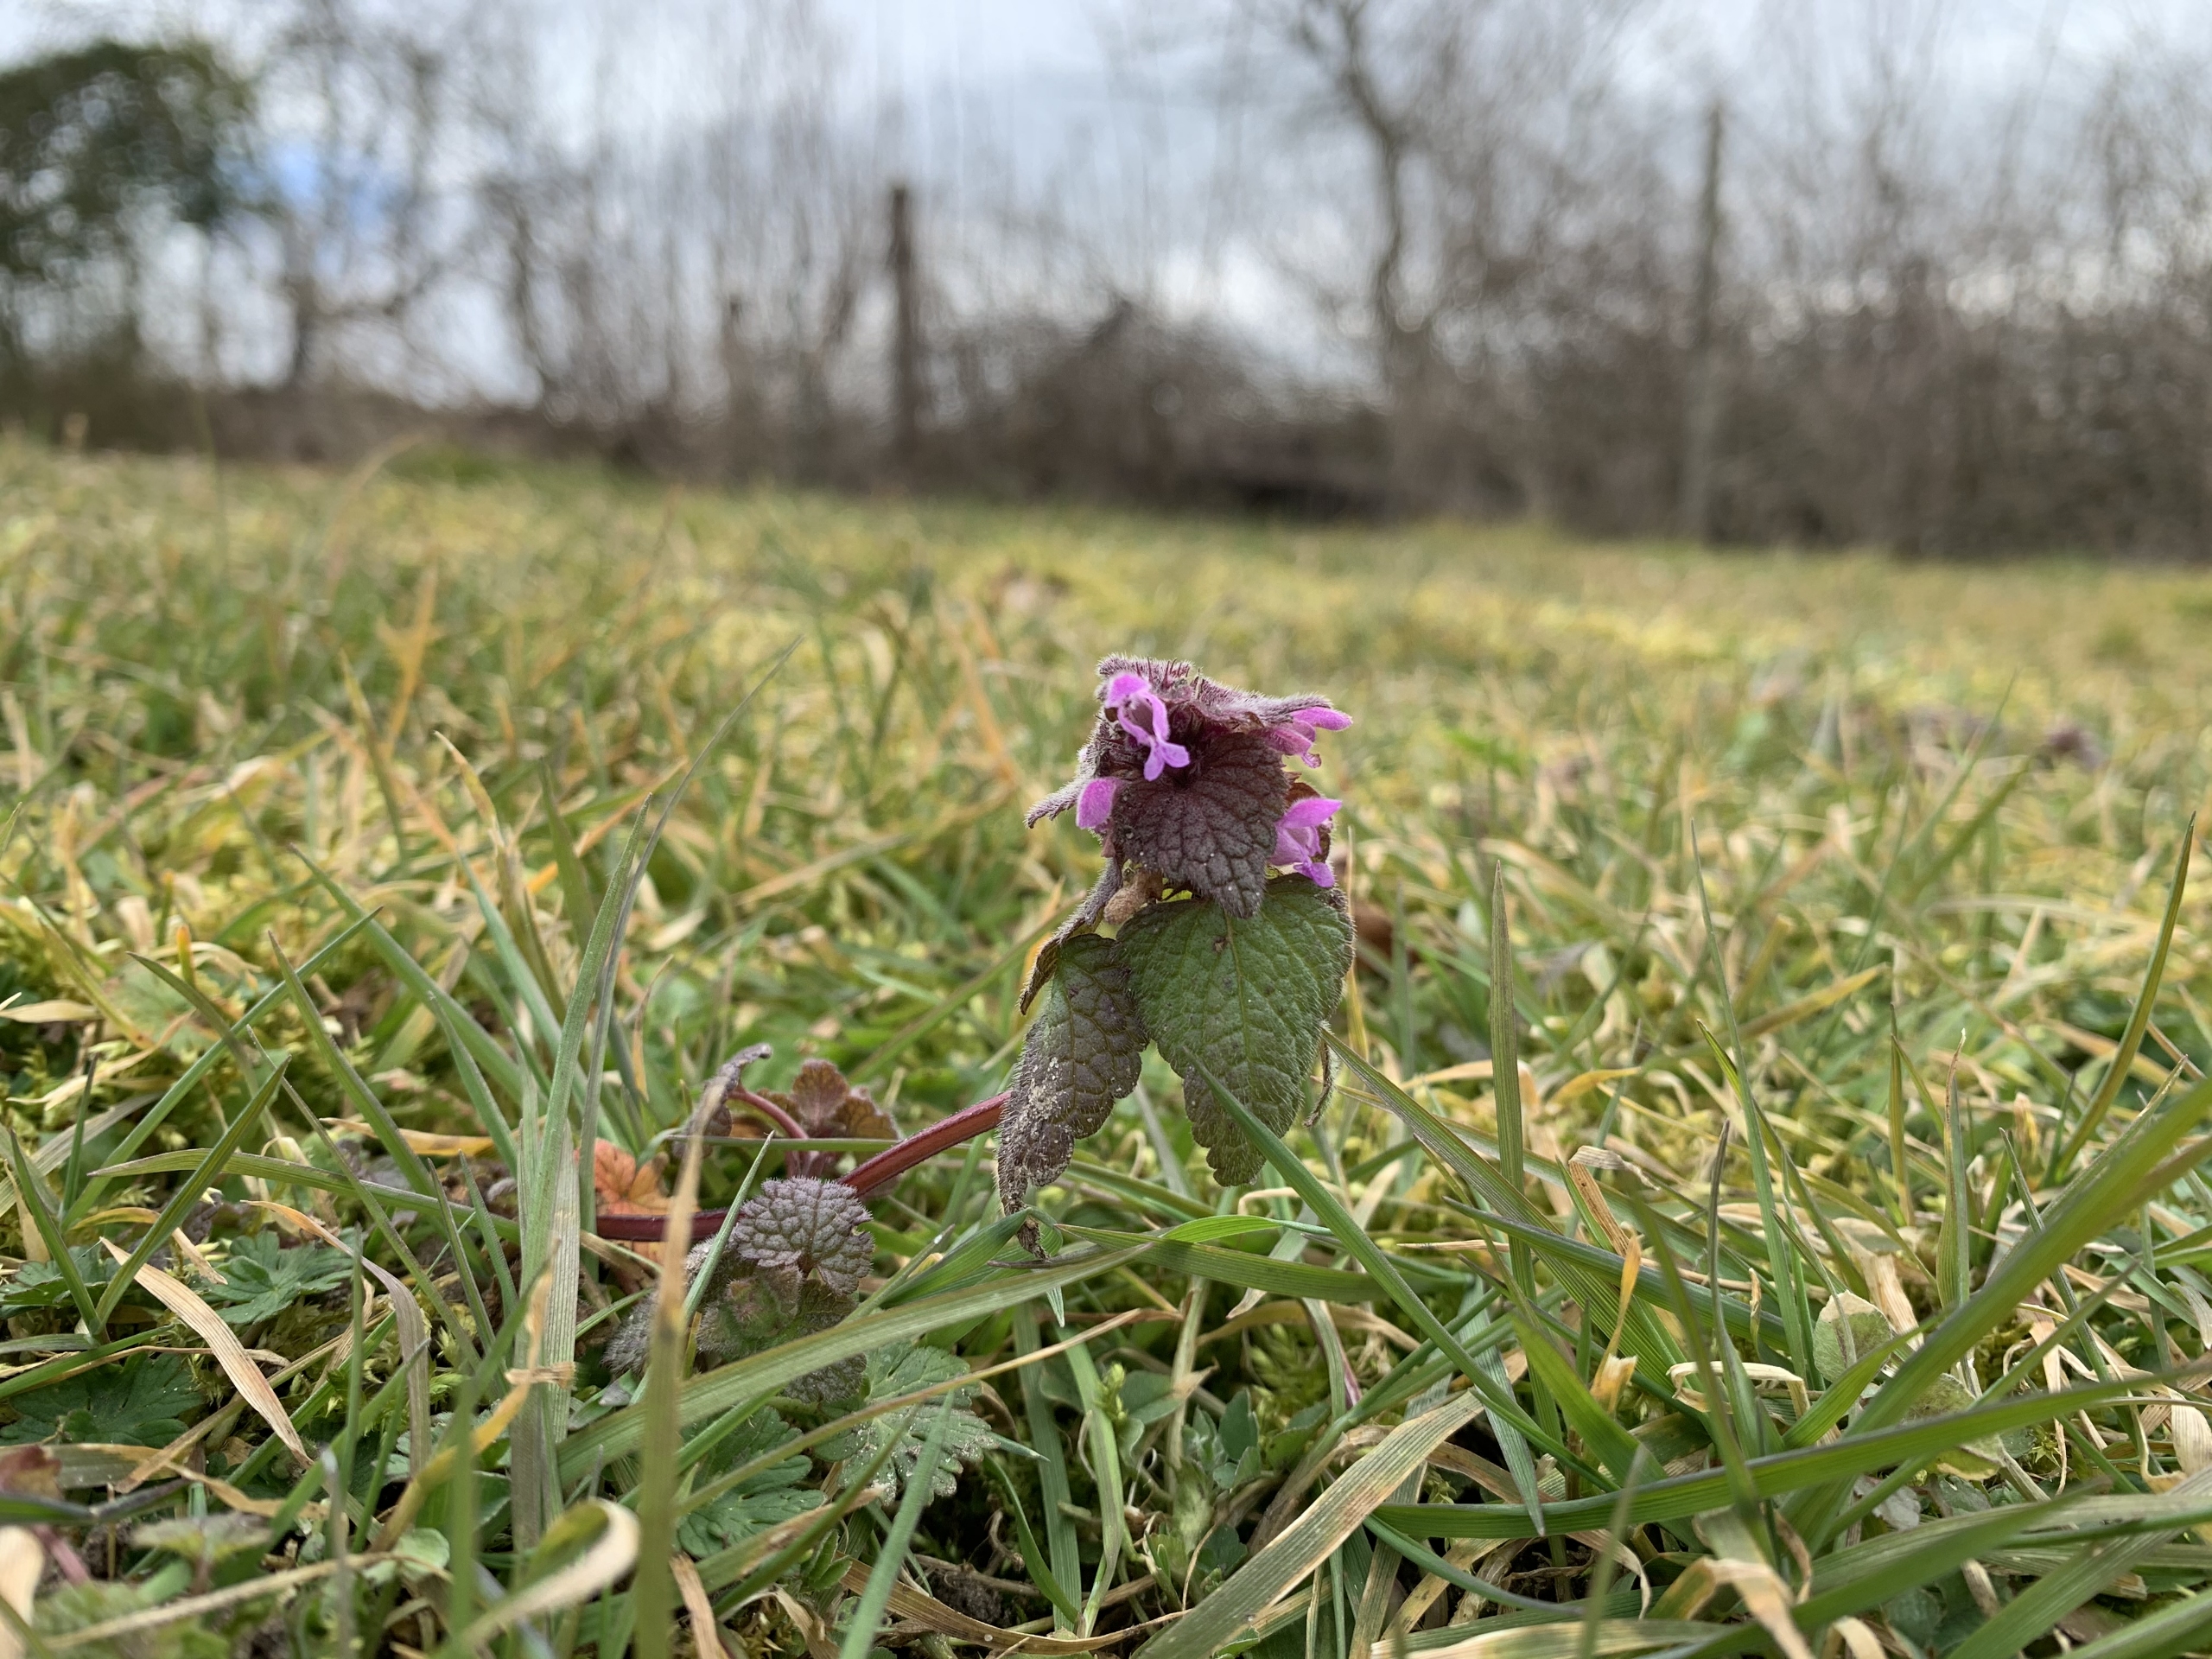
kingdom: Plantae
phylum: Tracheophyta
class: Magnoliopsida
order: Lamiales
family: Lamiaceae
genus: Lamium
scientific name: Lamium purpureum
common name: Rød tvetand
